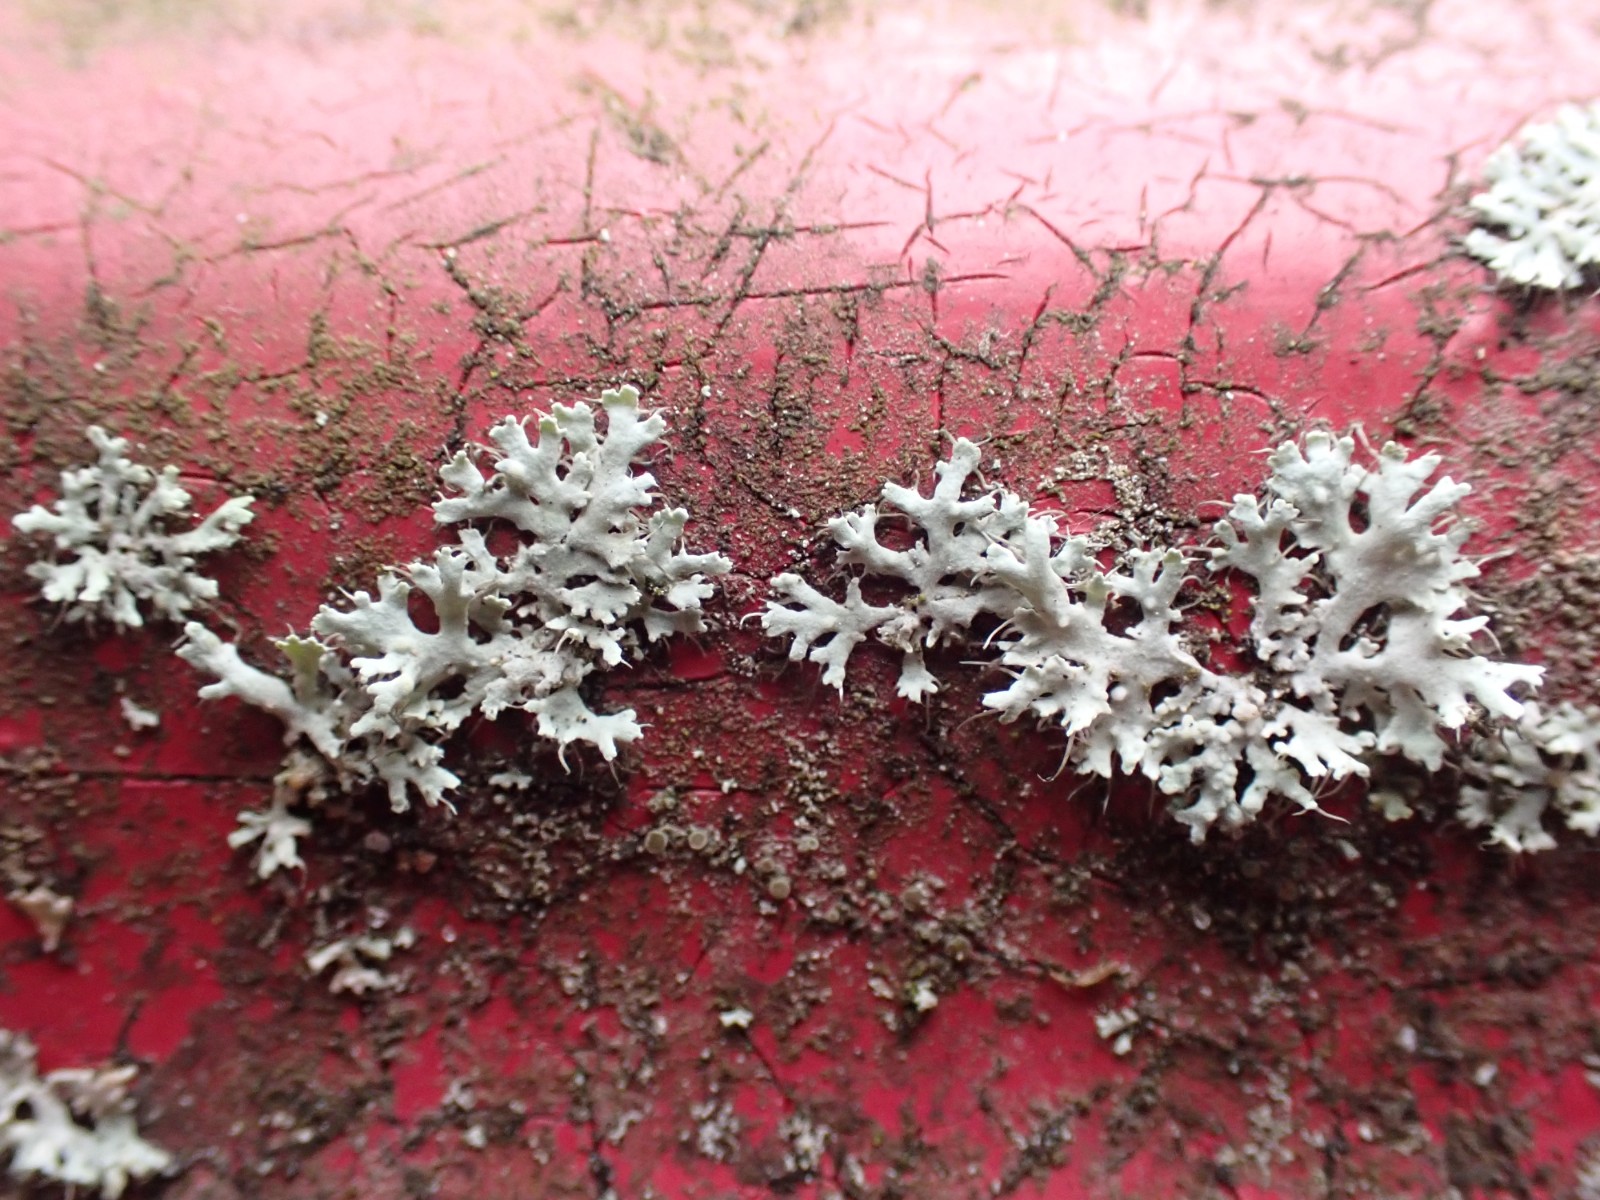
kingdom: Fungi
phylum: Ascomycota
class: Lecanoromycetes
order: Caliciales
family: Physciaceae
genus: Physcia
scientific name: Physcia tenella
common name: spæd rosetlav
